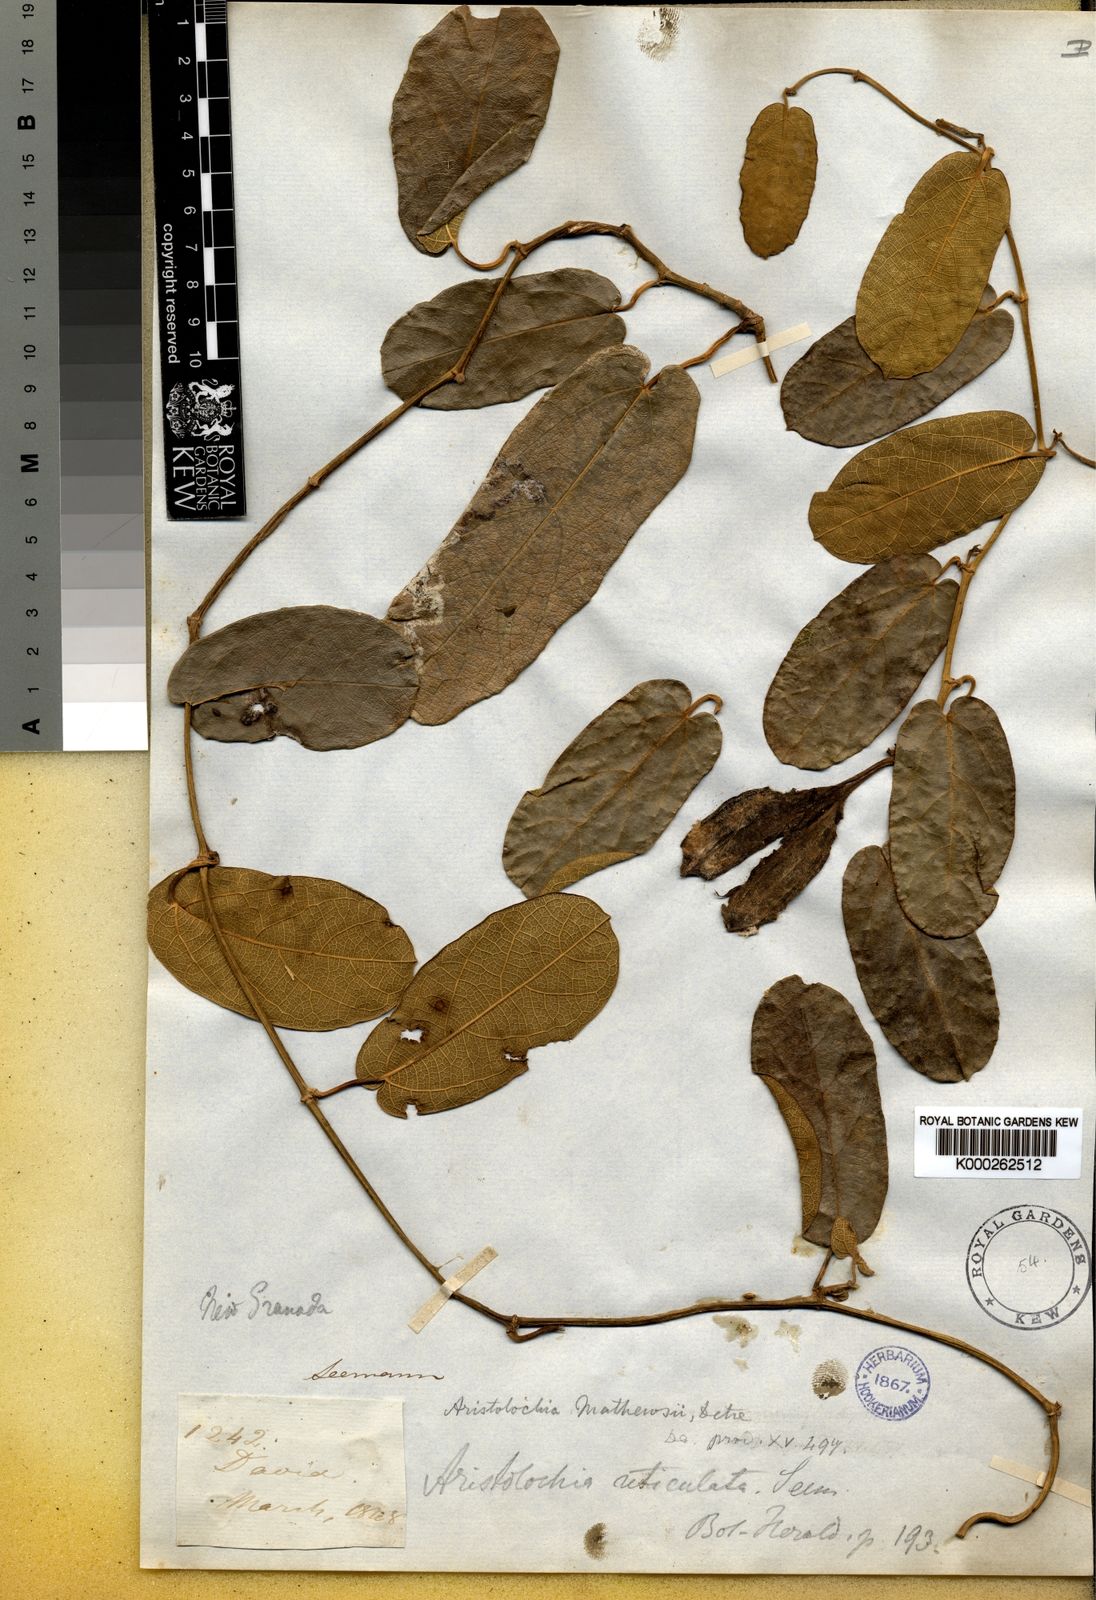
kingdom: Plantae
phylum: Tracheophyta
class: Magnoliopsida
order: Piperales
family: Aristolochiaceae
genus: Aristolochia
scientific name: Aristolochia mathewsii
